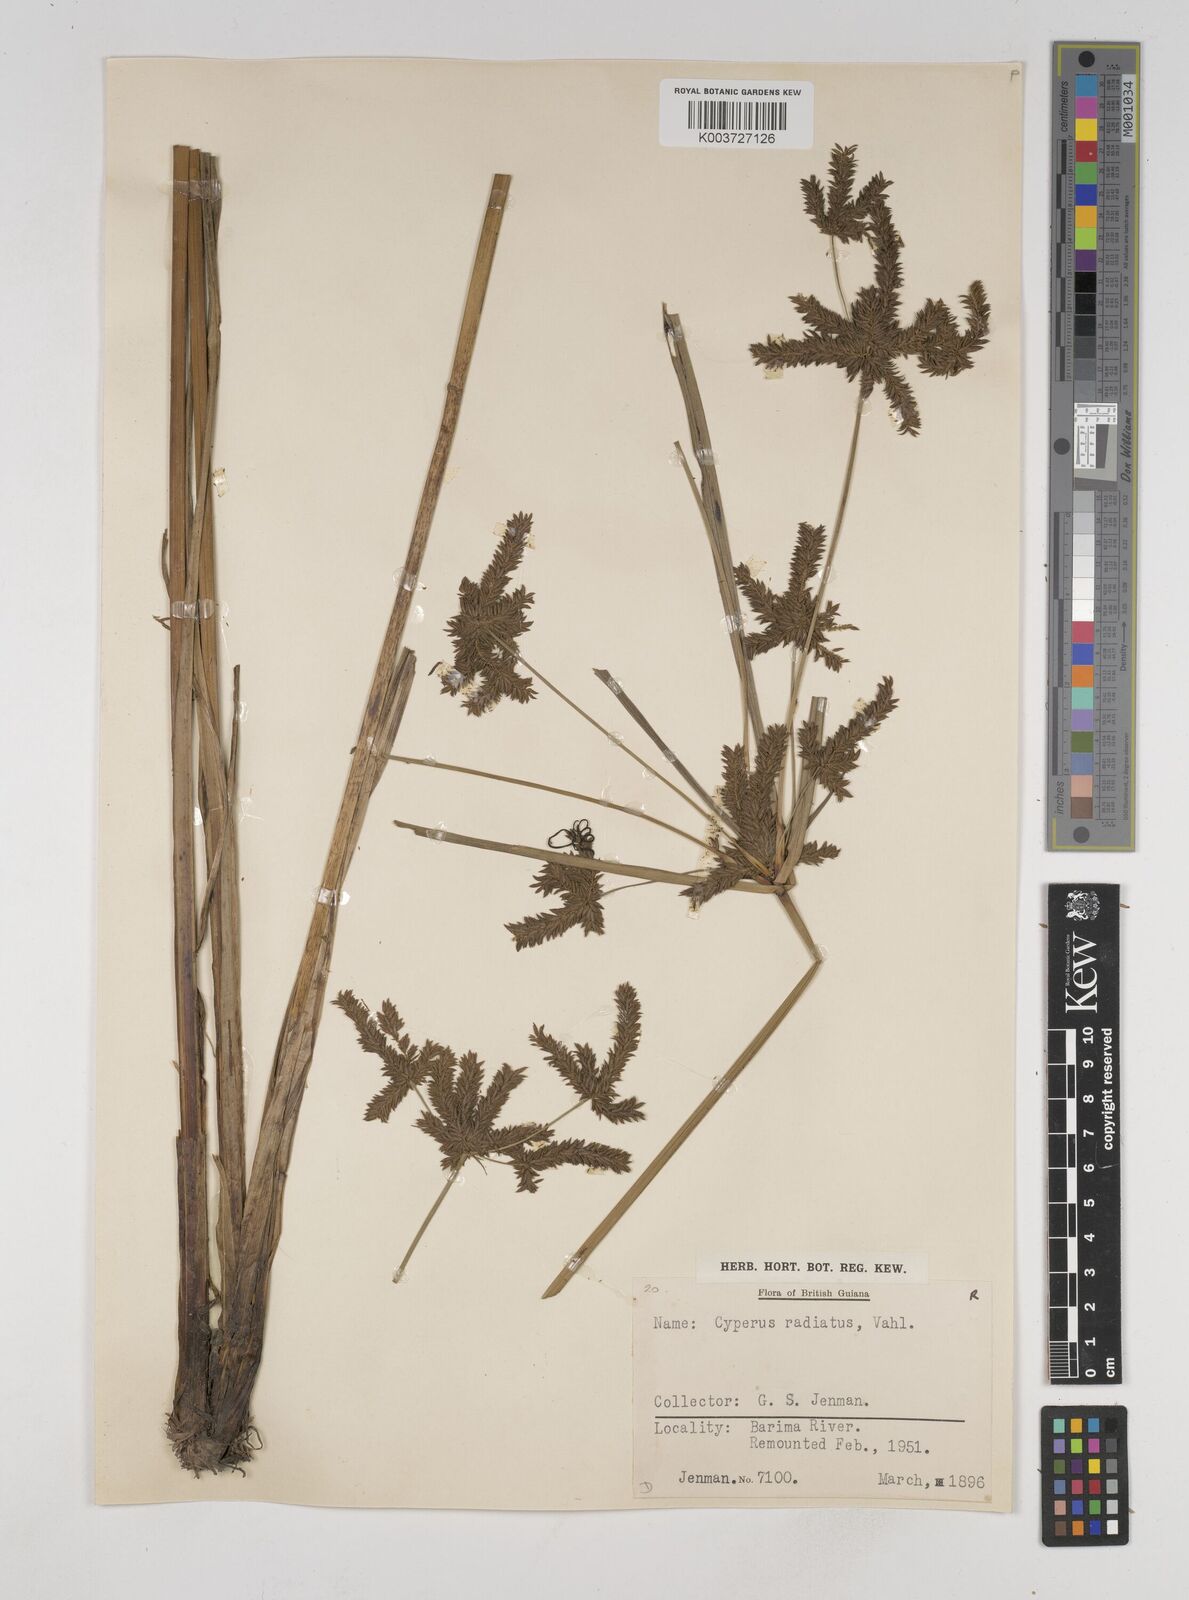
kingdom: Plantae
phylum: Tracheophyta
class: Liliopsida
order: Poales
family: Cyperaceae
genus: Cyperus
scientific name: Cyperus imbricatus
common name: Shingle flatsedge
